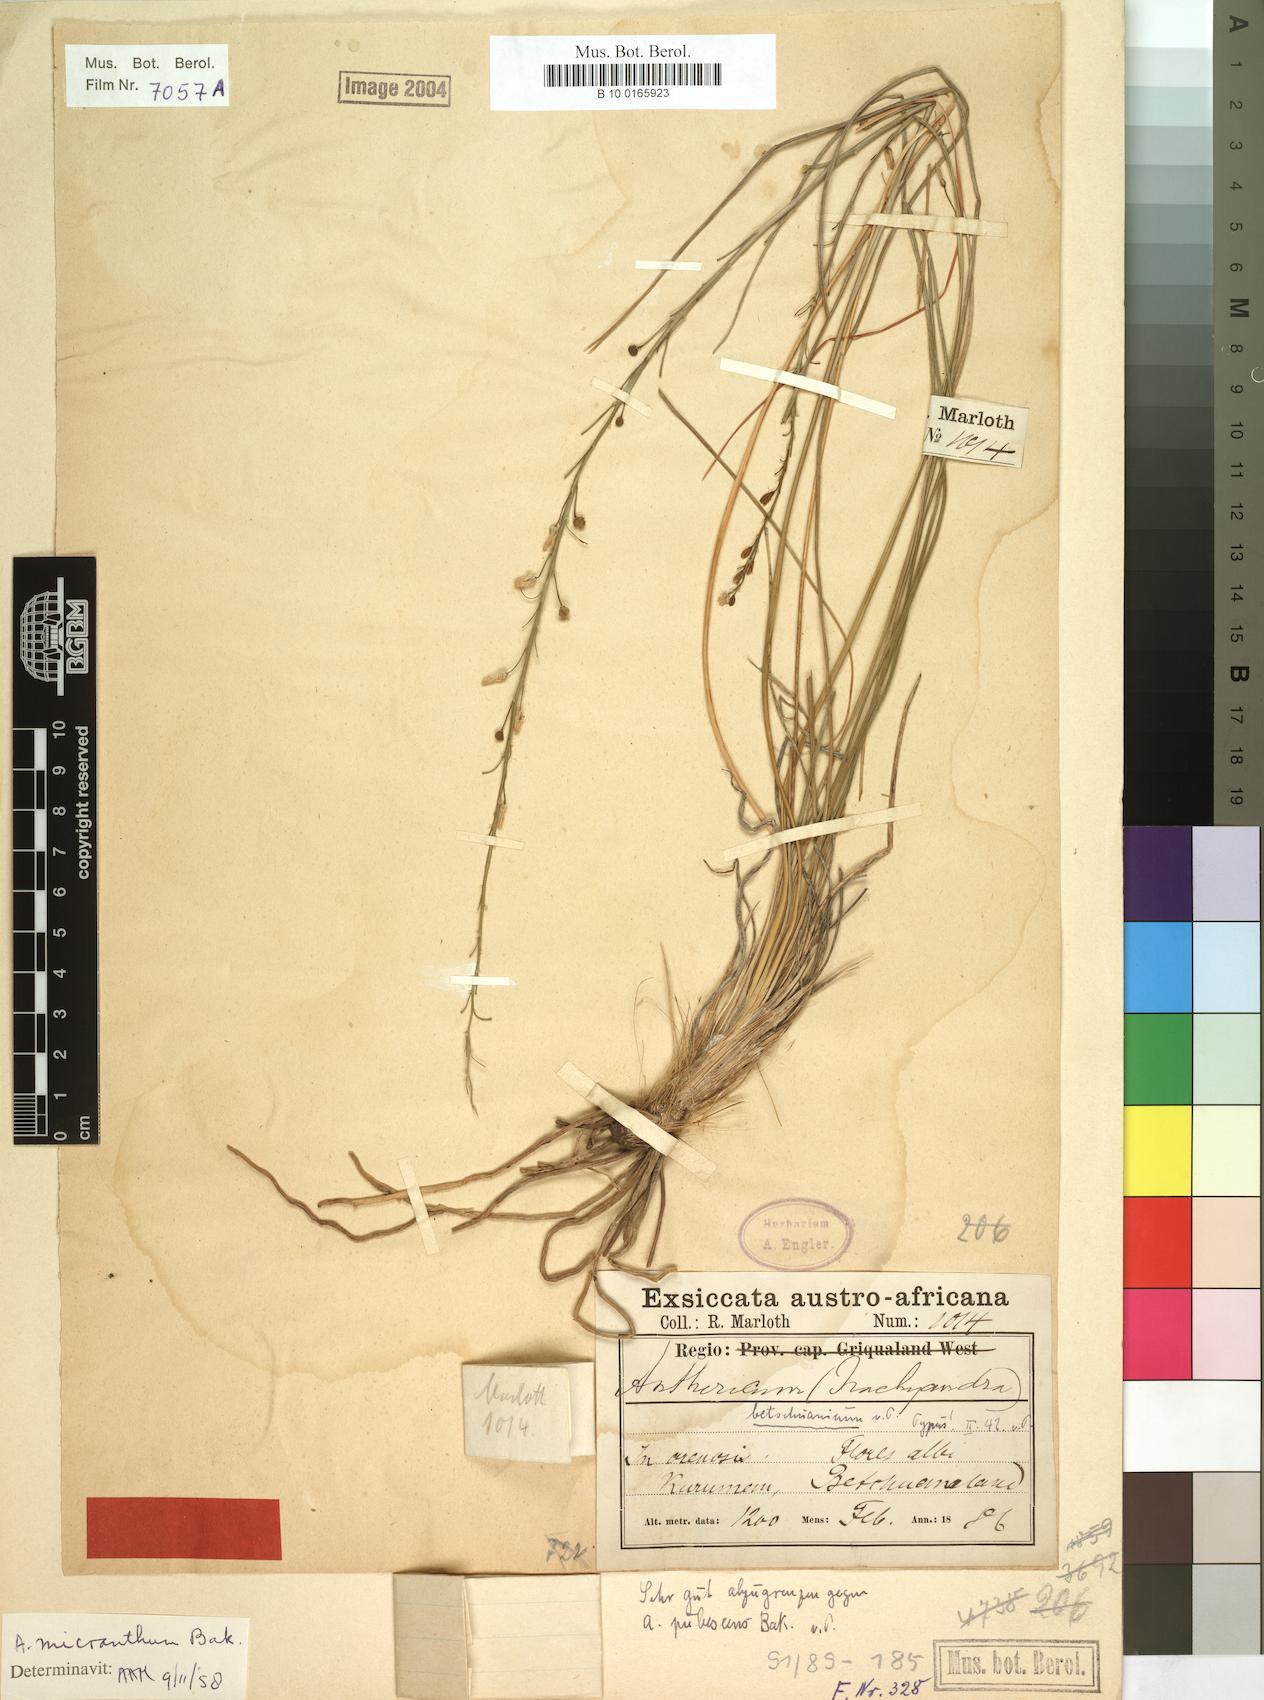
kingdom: Plantae
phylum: Tracheophyta
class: Liliopsida
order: Asparagales
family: Asphodelaceae
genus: Trachyandra
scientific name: Trachyandra saltii
